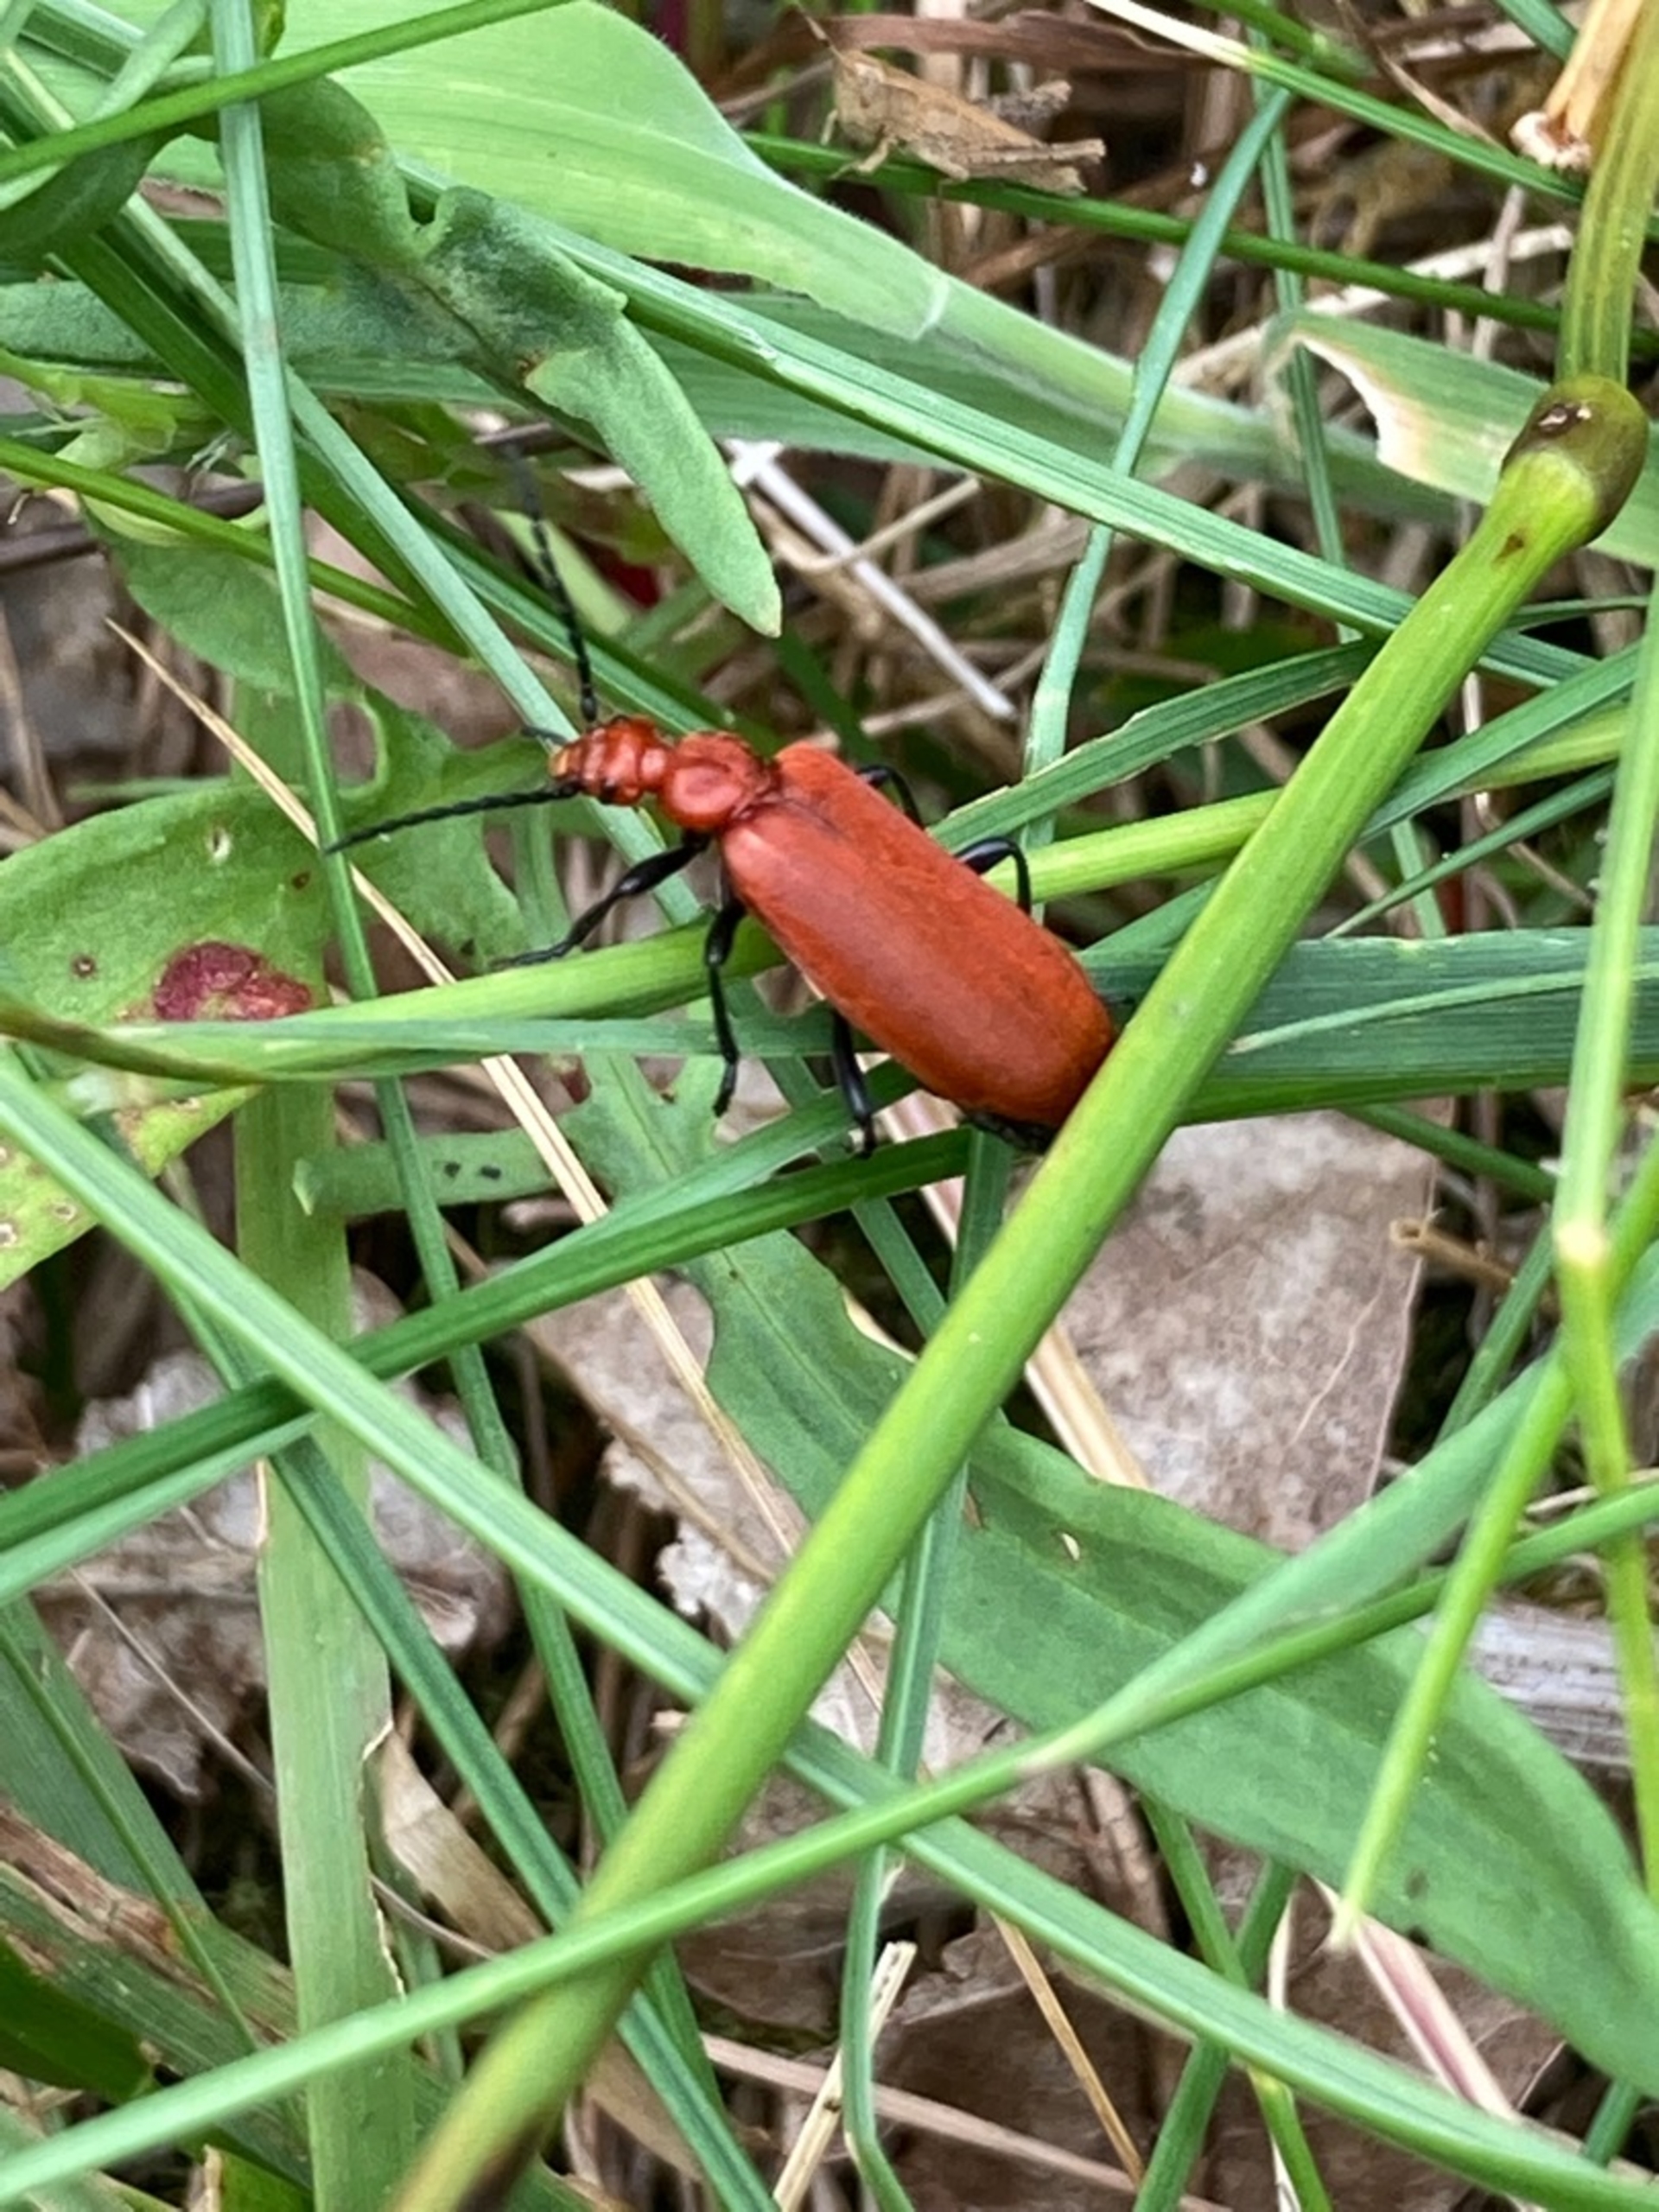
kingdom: Animalia
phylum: Arthropoda
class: Insecta
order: Coleoptera
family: Pyrochroidae
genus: Pyrochroa
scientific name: Pyrochroa serraticornis
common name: Rødhovedet kardinalbille
